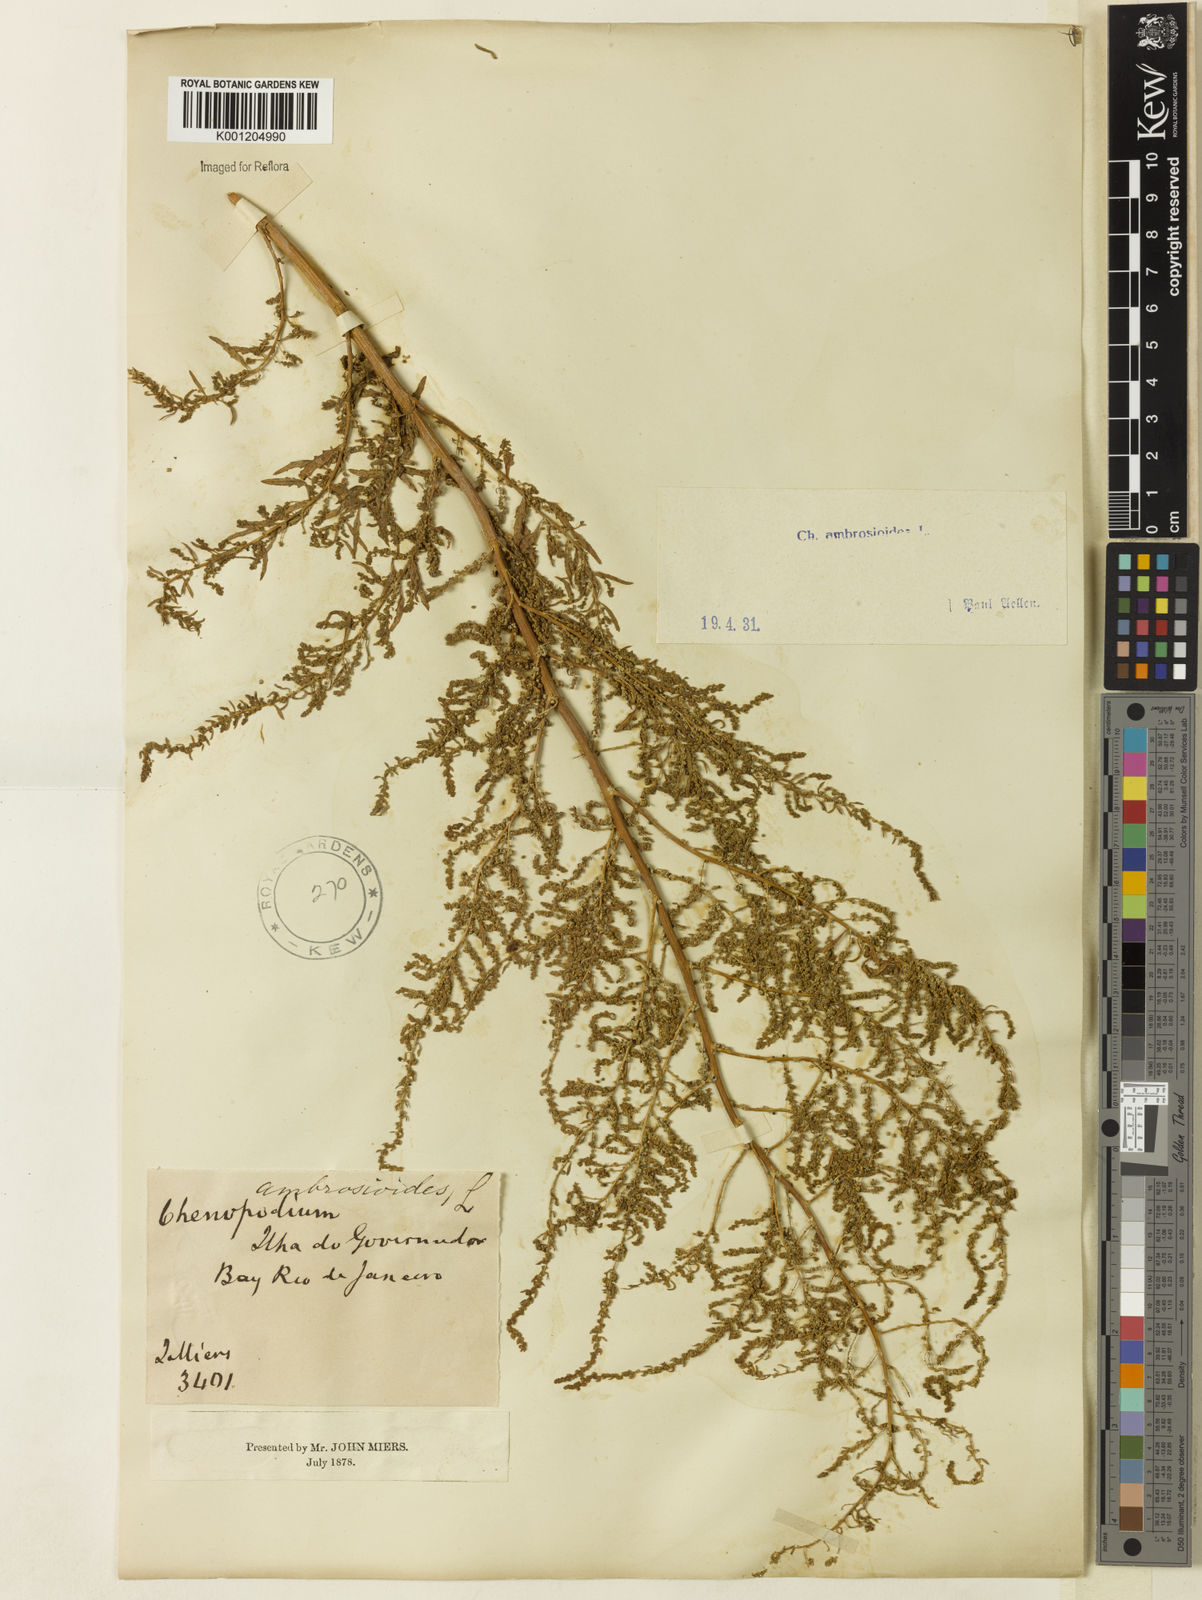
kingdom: Plantae
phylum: Tracheophyta
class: Magnoliopsida
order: Caryophyllales
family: Amaranthaceae
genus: Dysphania
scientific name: Dysphania ambrosioides
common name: Wormseed
